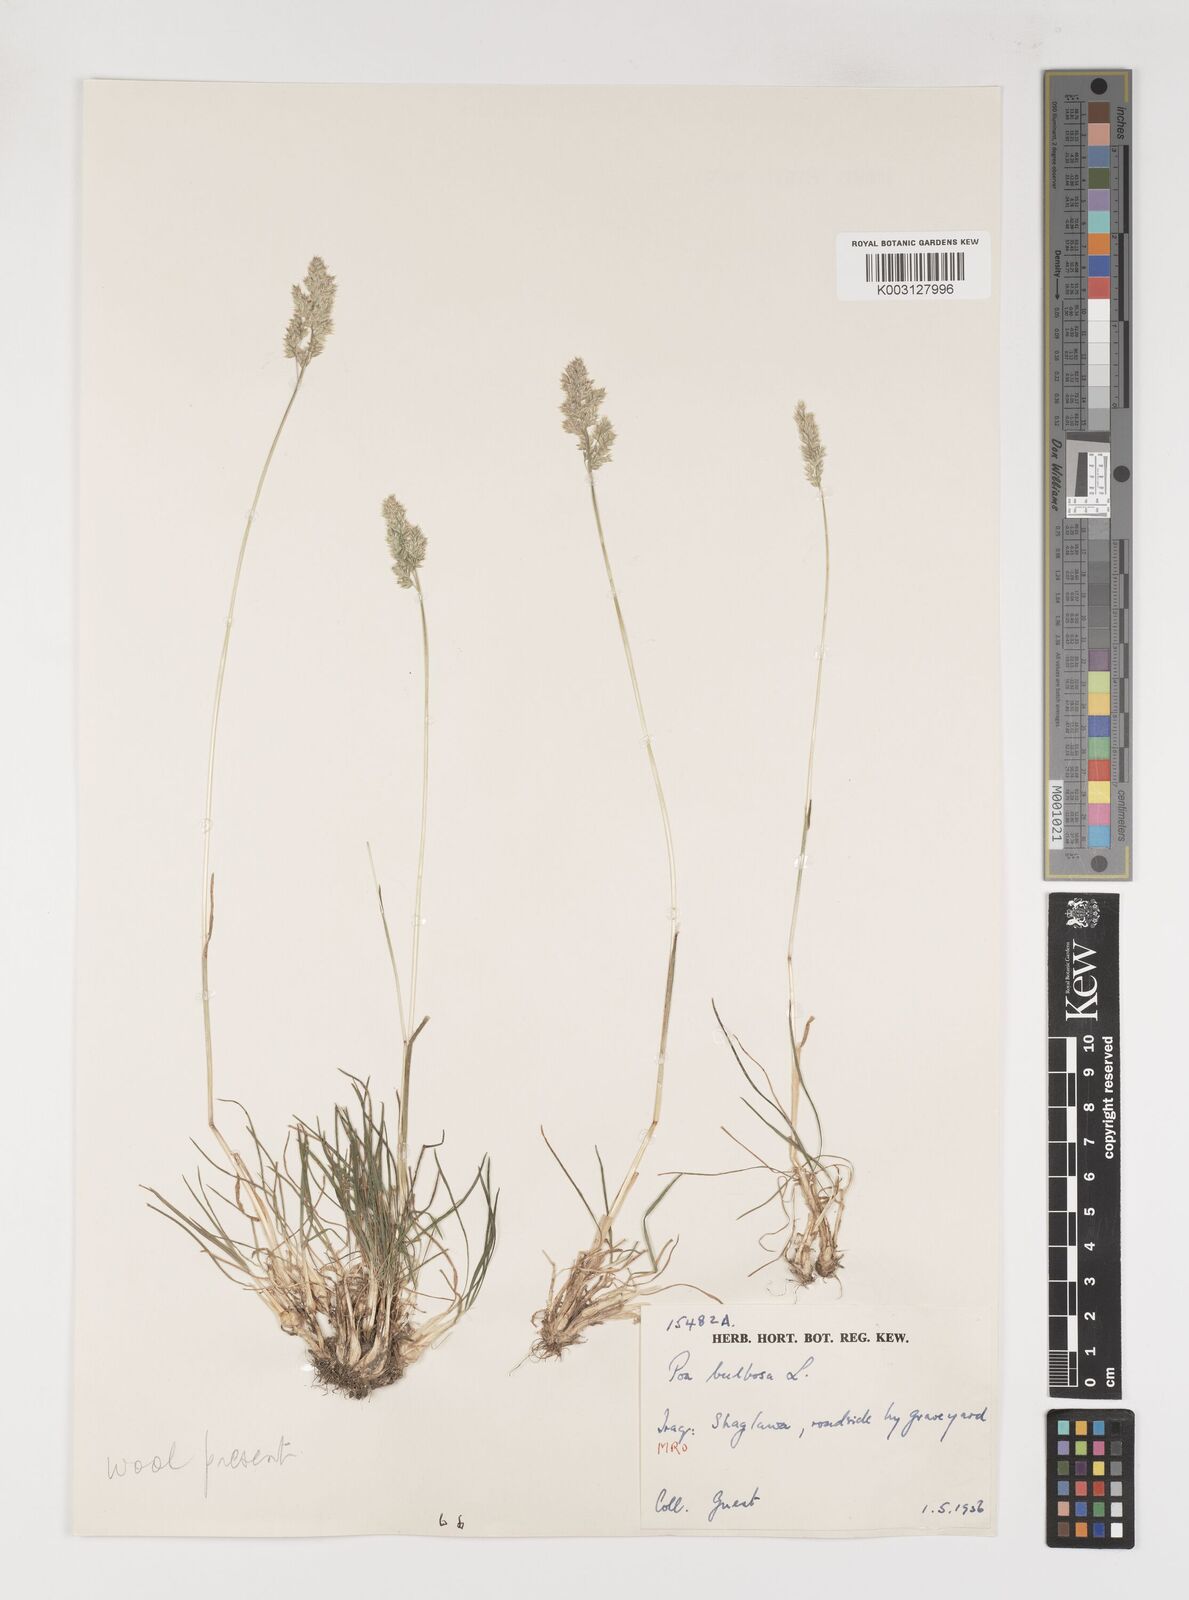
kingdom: Plantae
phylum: Tracheophyta
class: Liliopsida
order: Poales
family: Poaceae
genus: Poa
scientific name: Poa bulbosa
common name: Bulbous bluegrass
